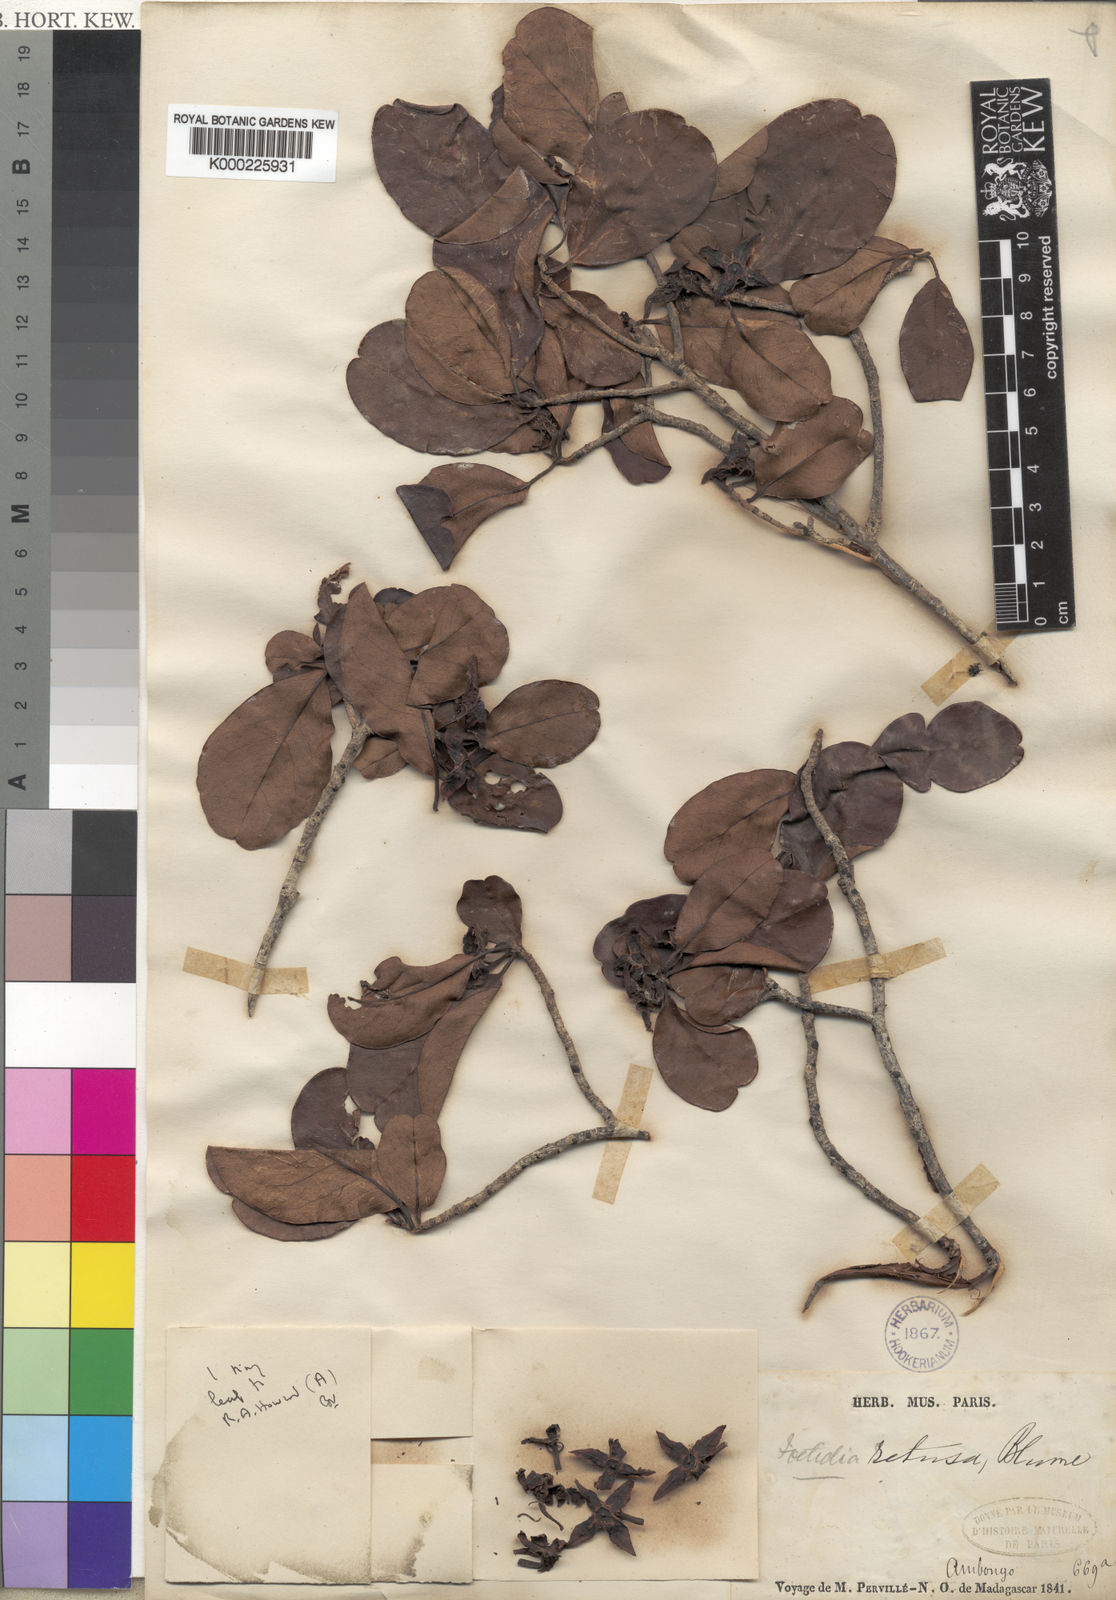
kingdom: Plantae
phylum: Tracheophyta
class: Magnoliopsida
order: Ericales
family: Lecythidaceae
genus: Foetidia
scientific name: Foetidia retusa
